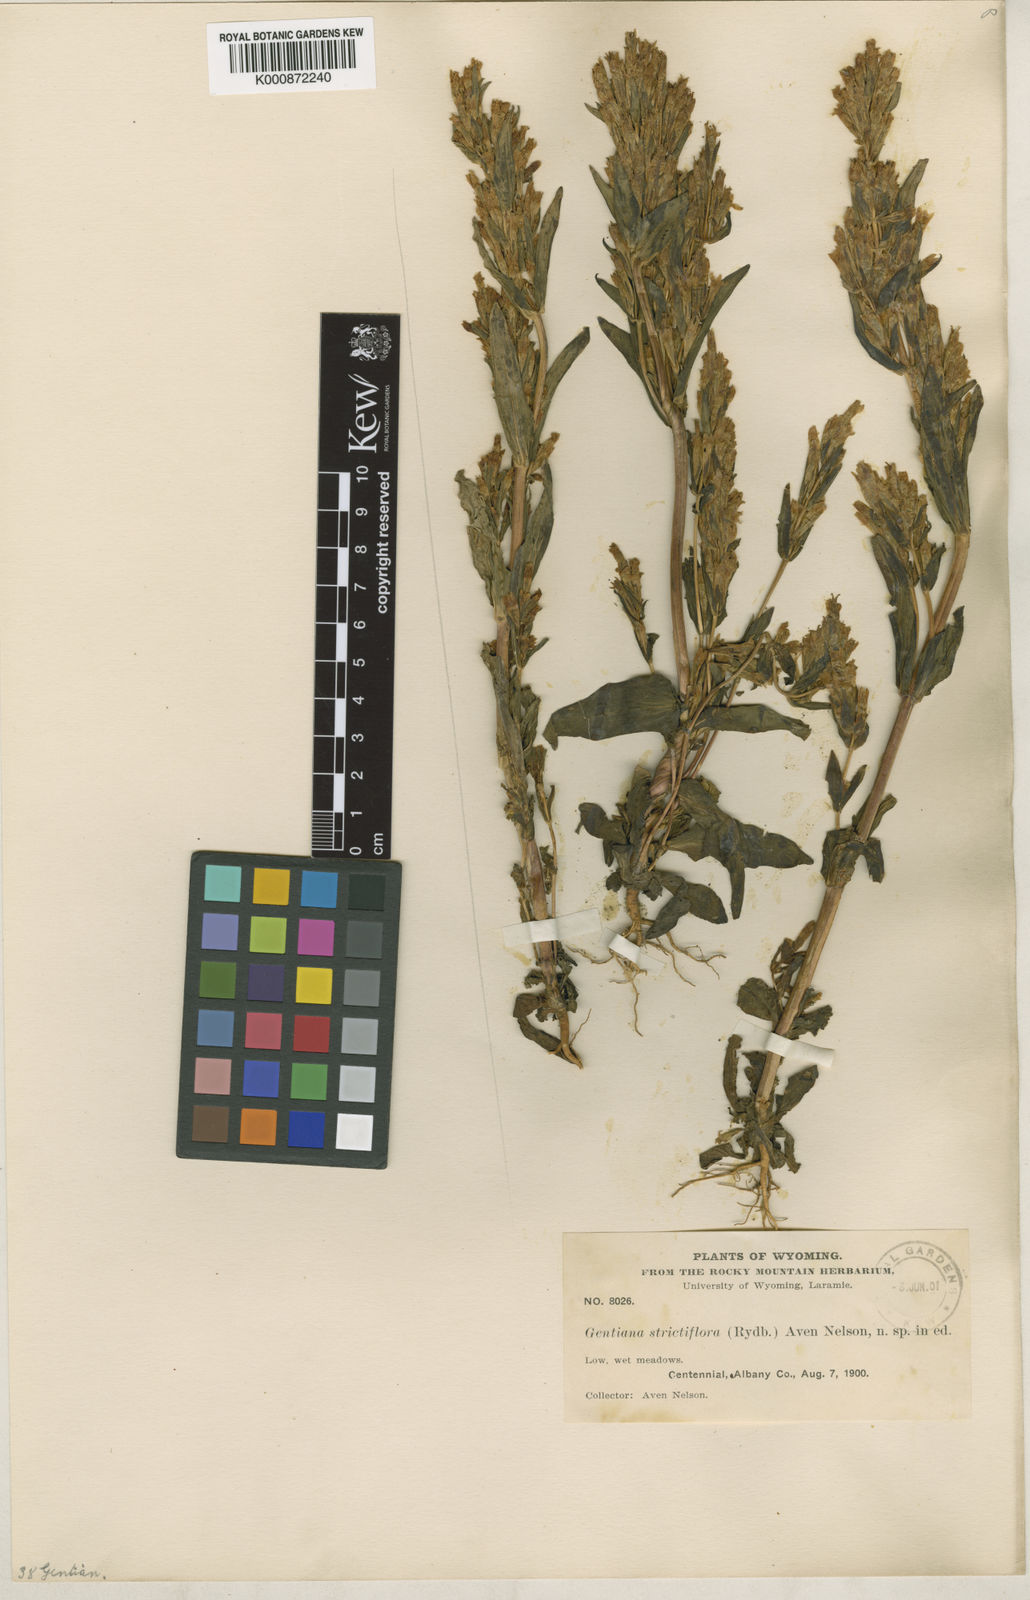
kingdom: Plantae
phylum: Tracheophyta
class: Magnoliopsida
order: Gentianales
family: Gentianaceae
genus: Gentianella
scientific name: Gentianella
